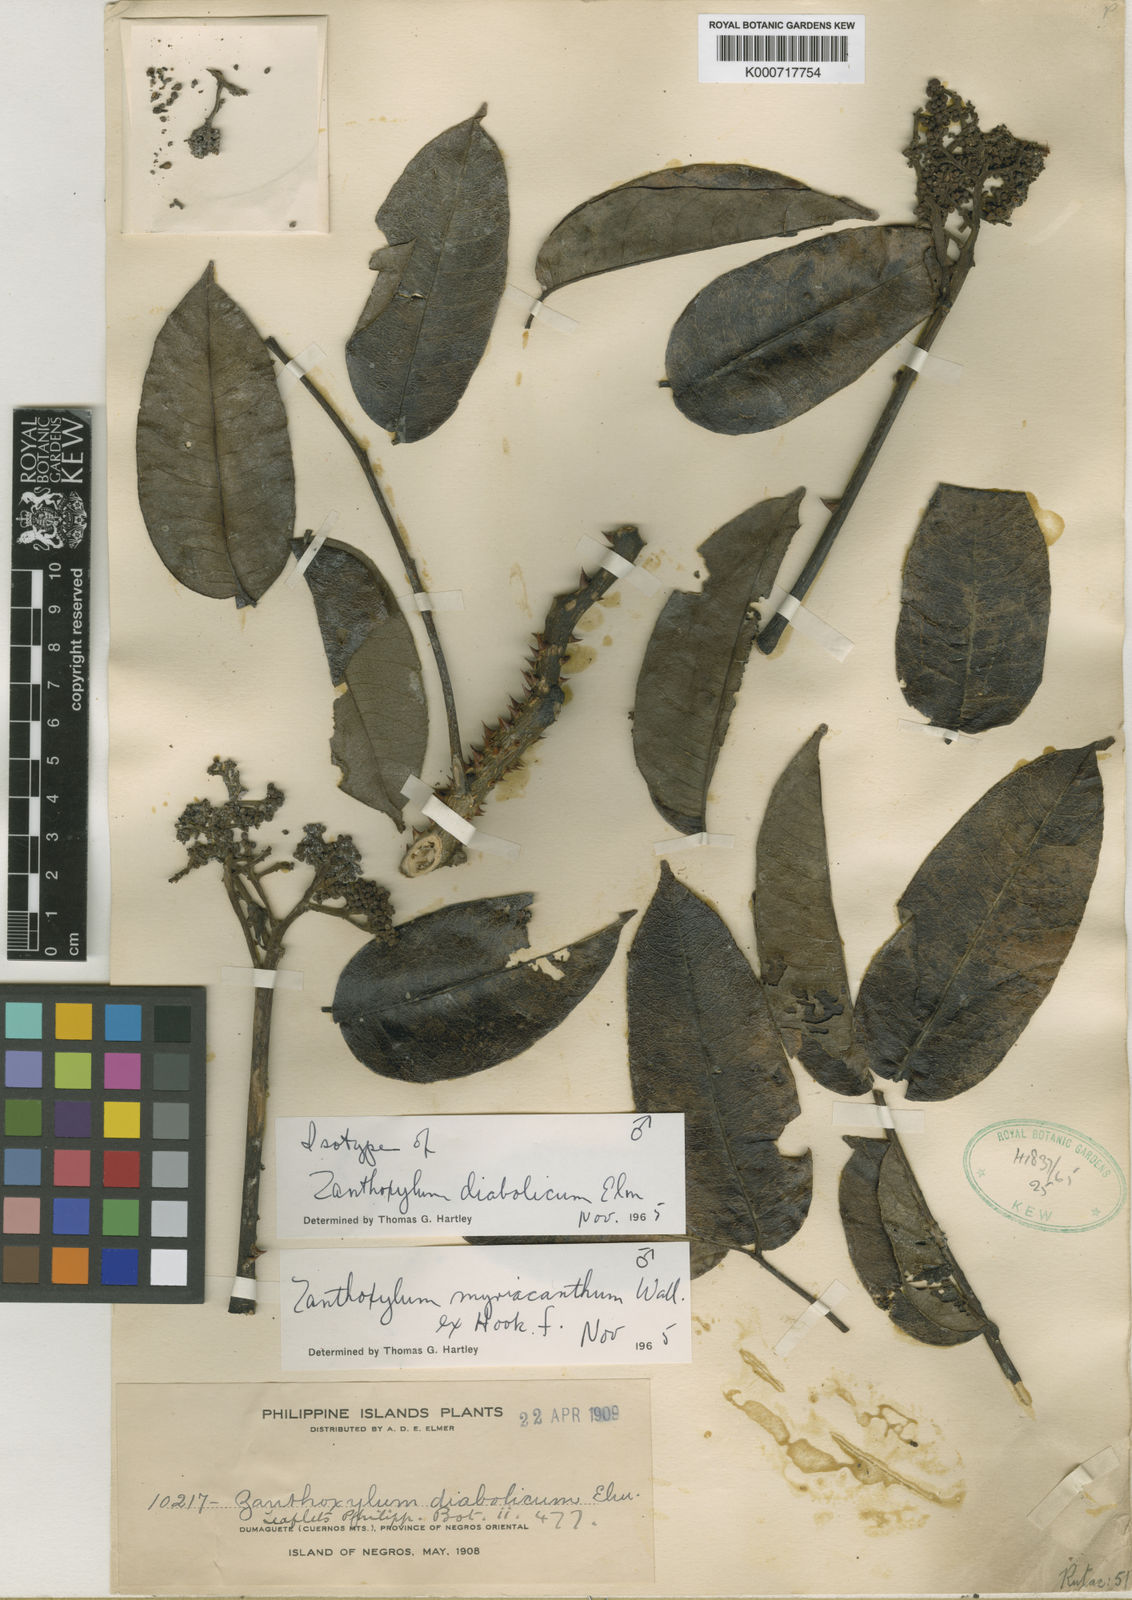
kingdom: Plantae
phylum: Tracheophyta
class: Magnoliopsida
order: Sapindales
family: Rutaceae
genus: Zanthoxylum
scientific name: Zanthoxylum myriacanthum
